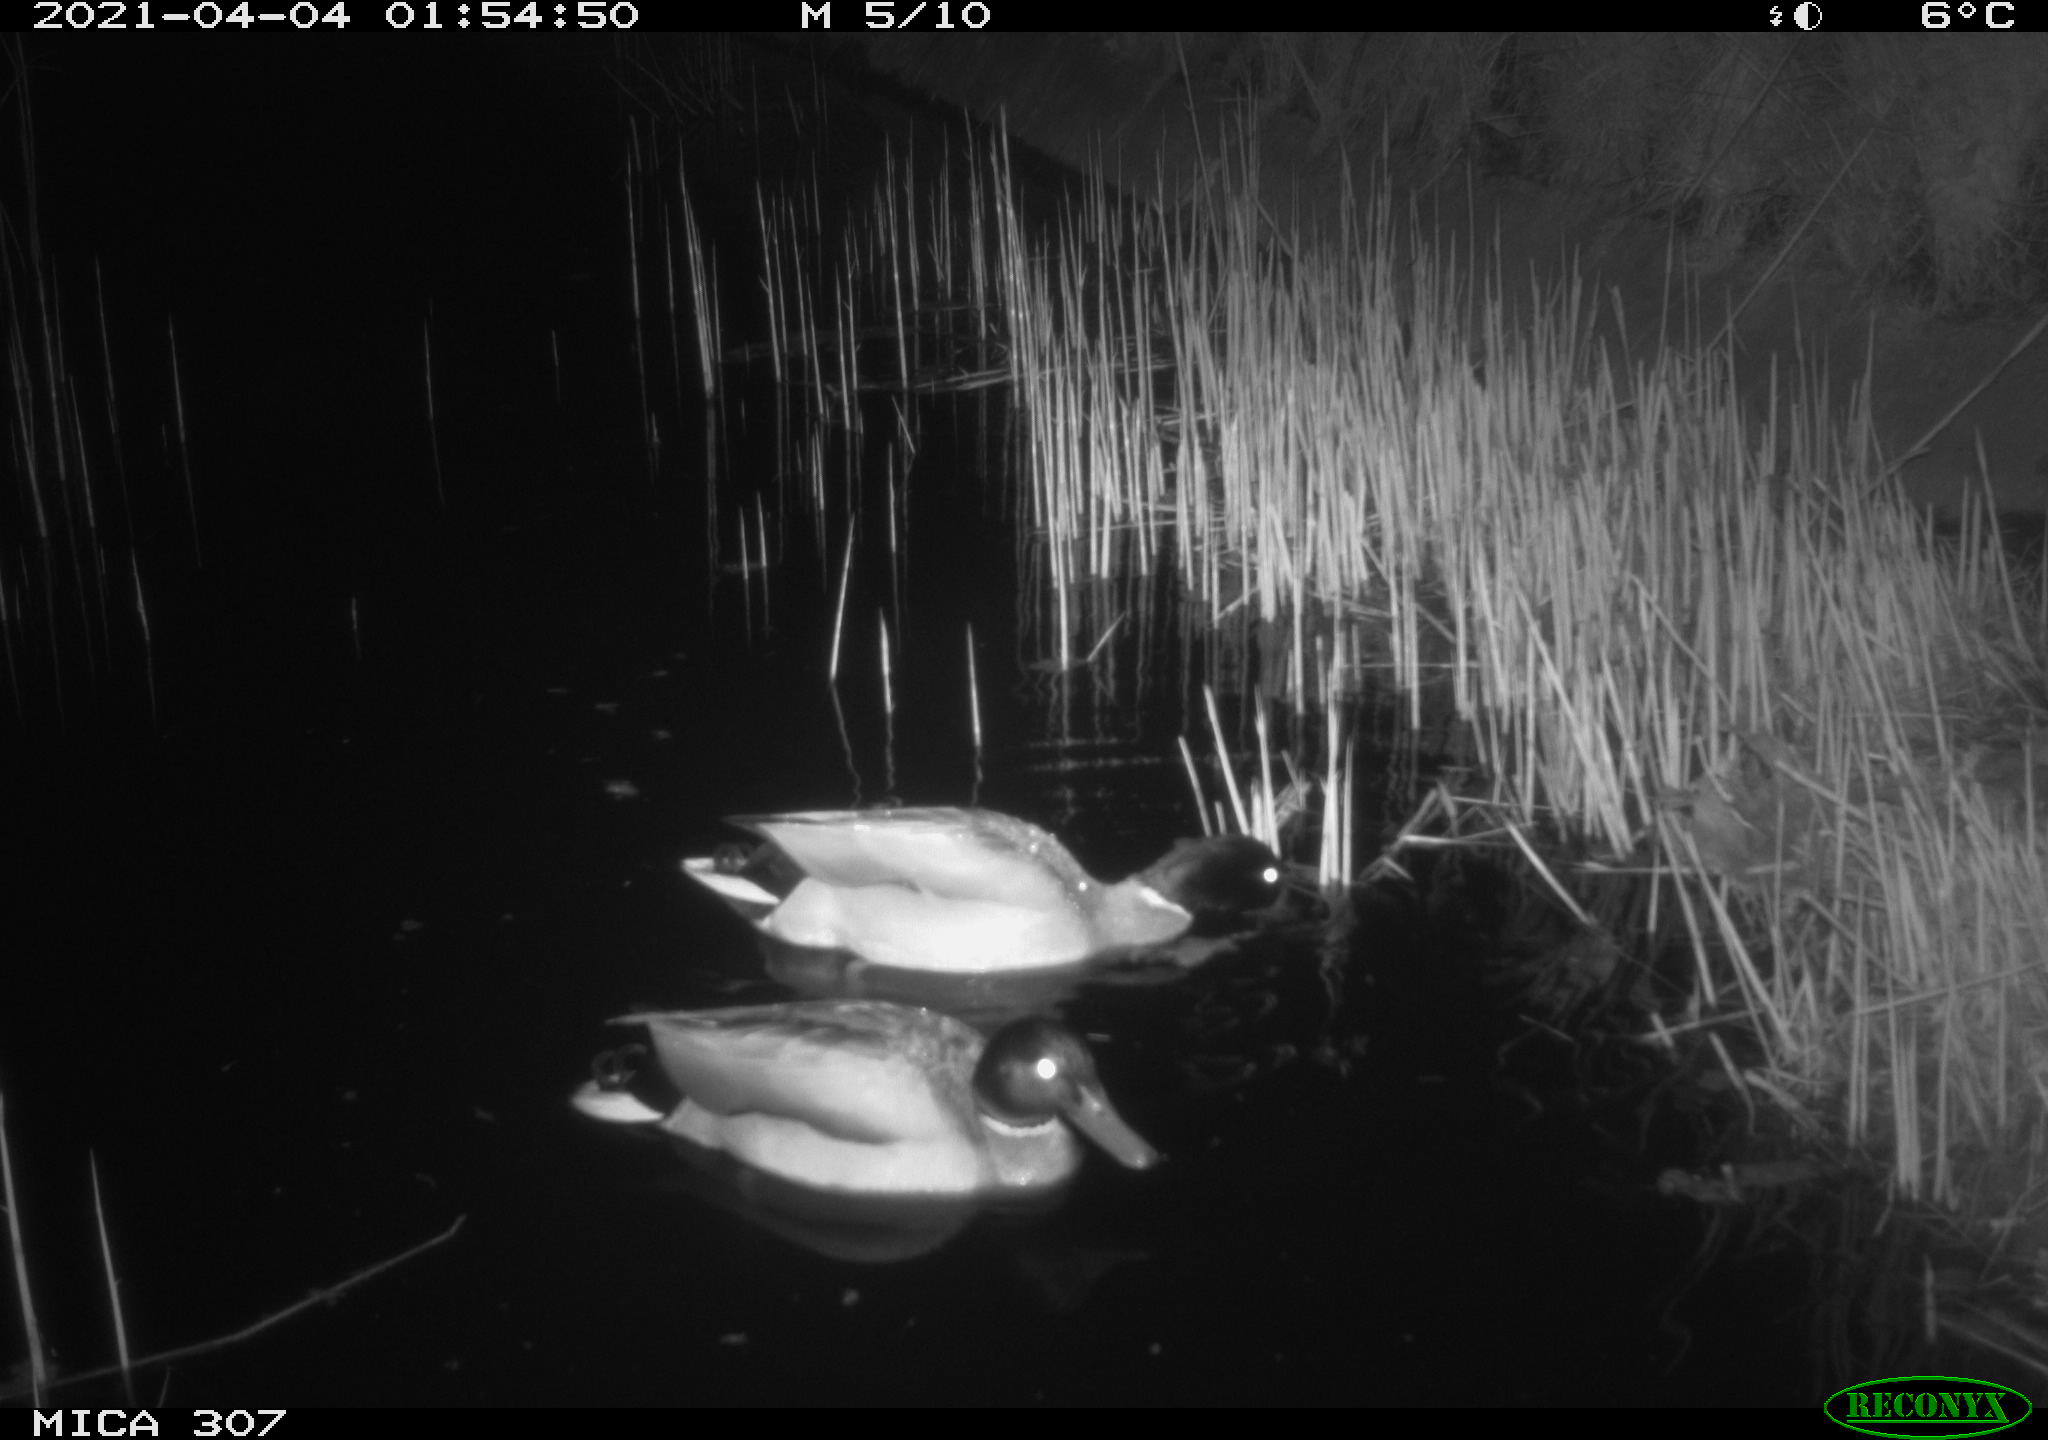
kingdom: Animalia
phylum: Chordata
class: Aves
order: Anseriformes
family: Anatidae
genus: Anas
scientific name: Anas platyrhynchos
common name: Mallard
